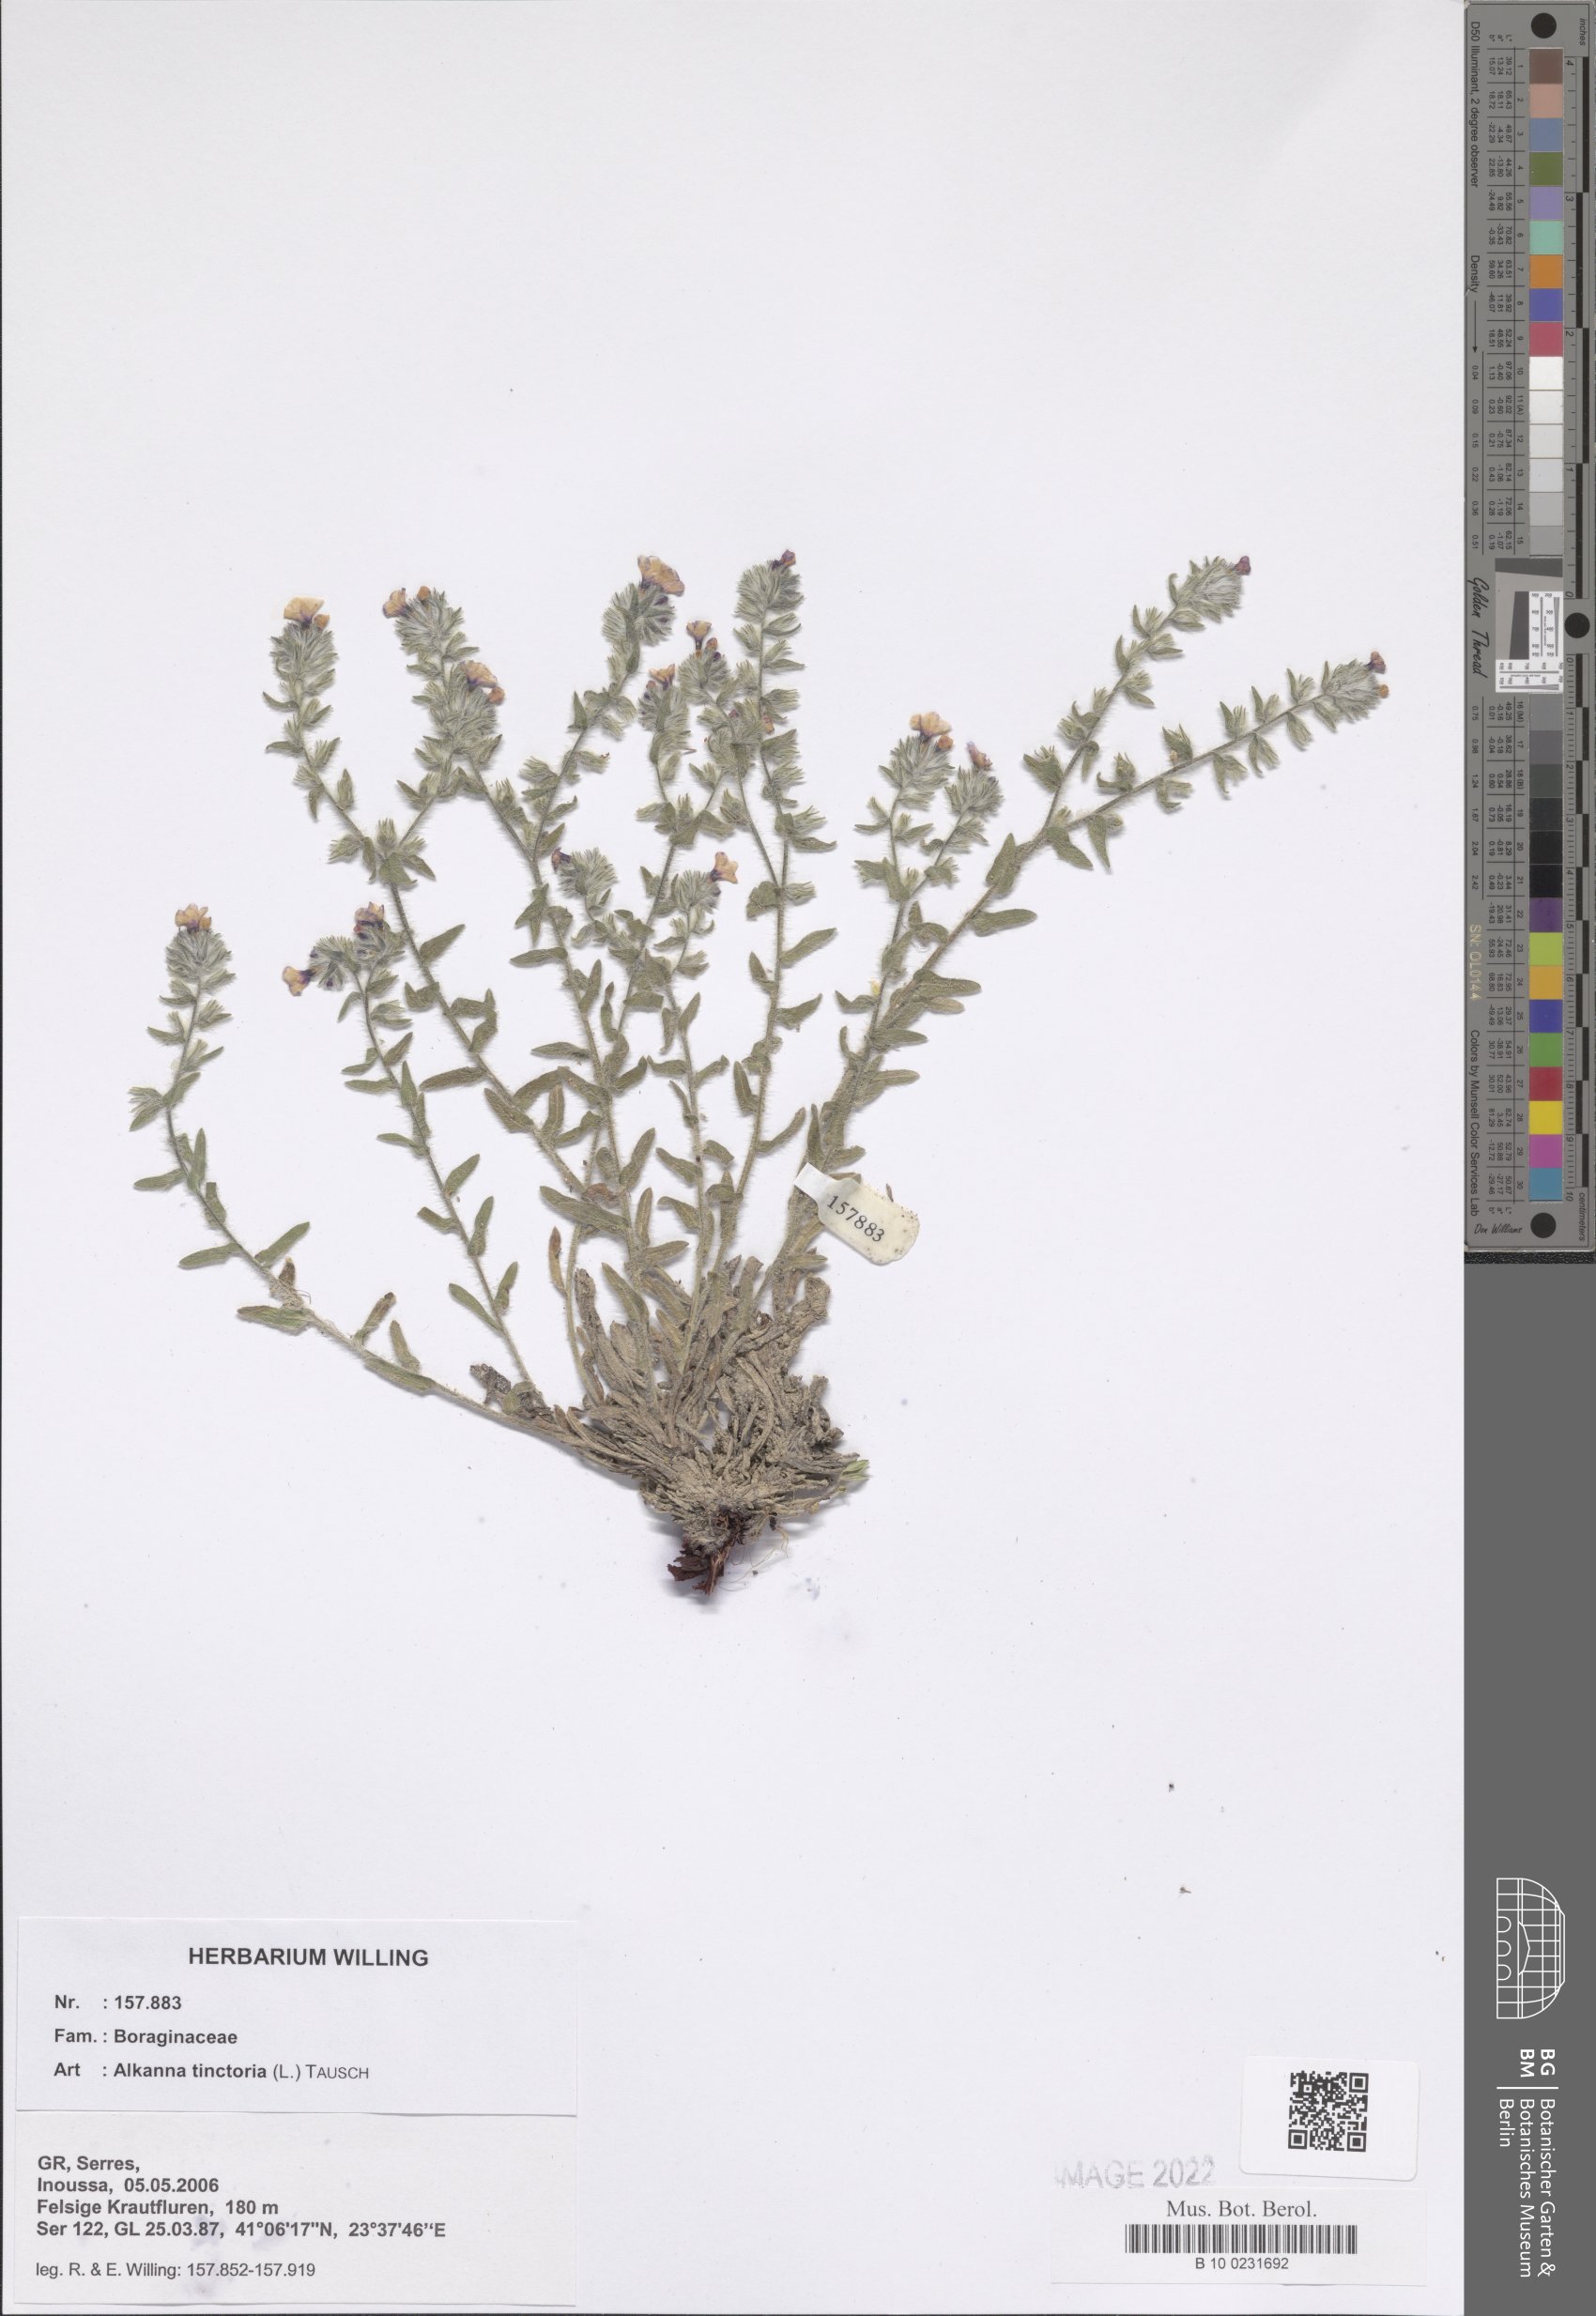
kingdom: Plantae
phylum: Tracheophyta
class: Magnoliopsida
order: Boraginales
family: Boraginaceae
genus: Alkanna
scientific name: Alkanna tinctoria
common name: Dyer's-alkanet
